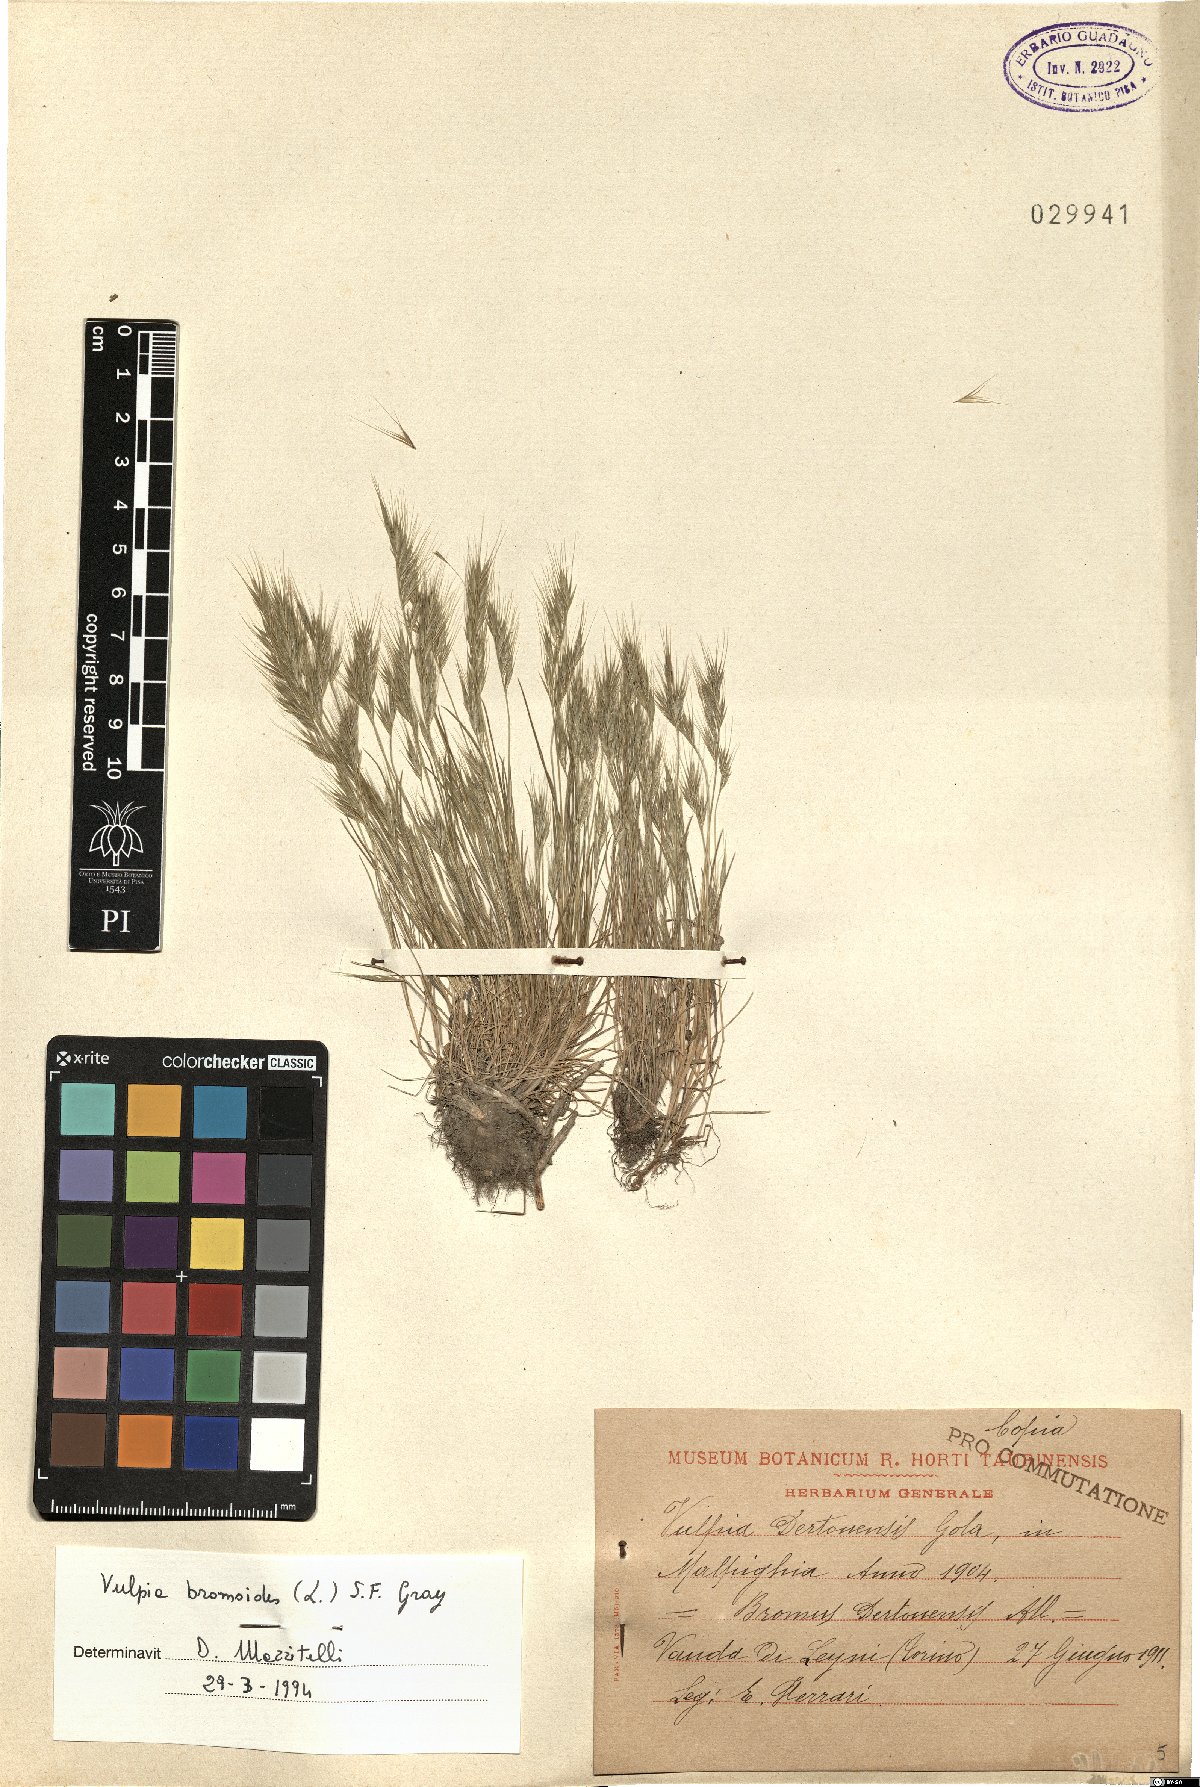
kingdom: Plantae
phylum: Tracheophyta
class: Liliopsida
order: Poales
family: Poaceae
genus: Festuca
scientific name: Festuca bromoides
